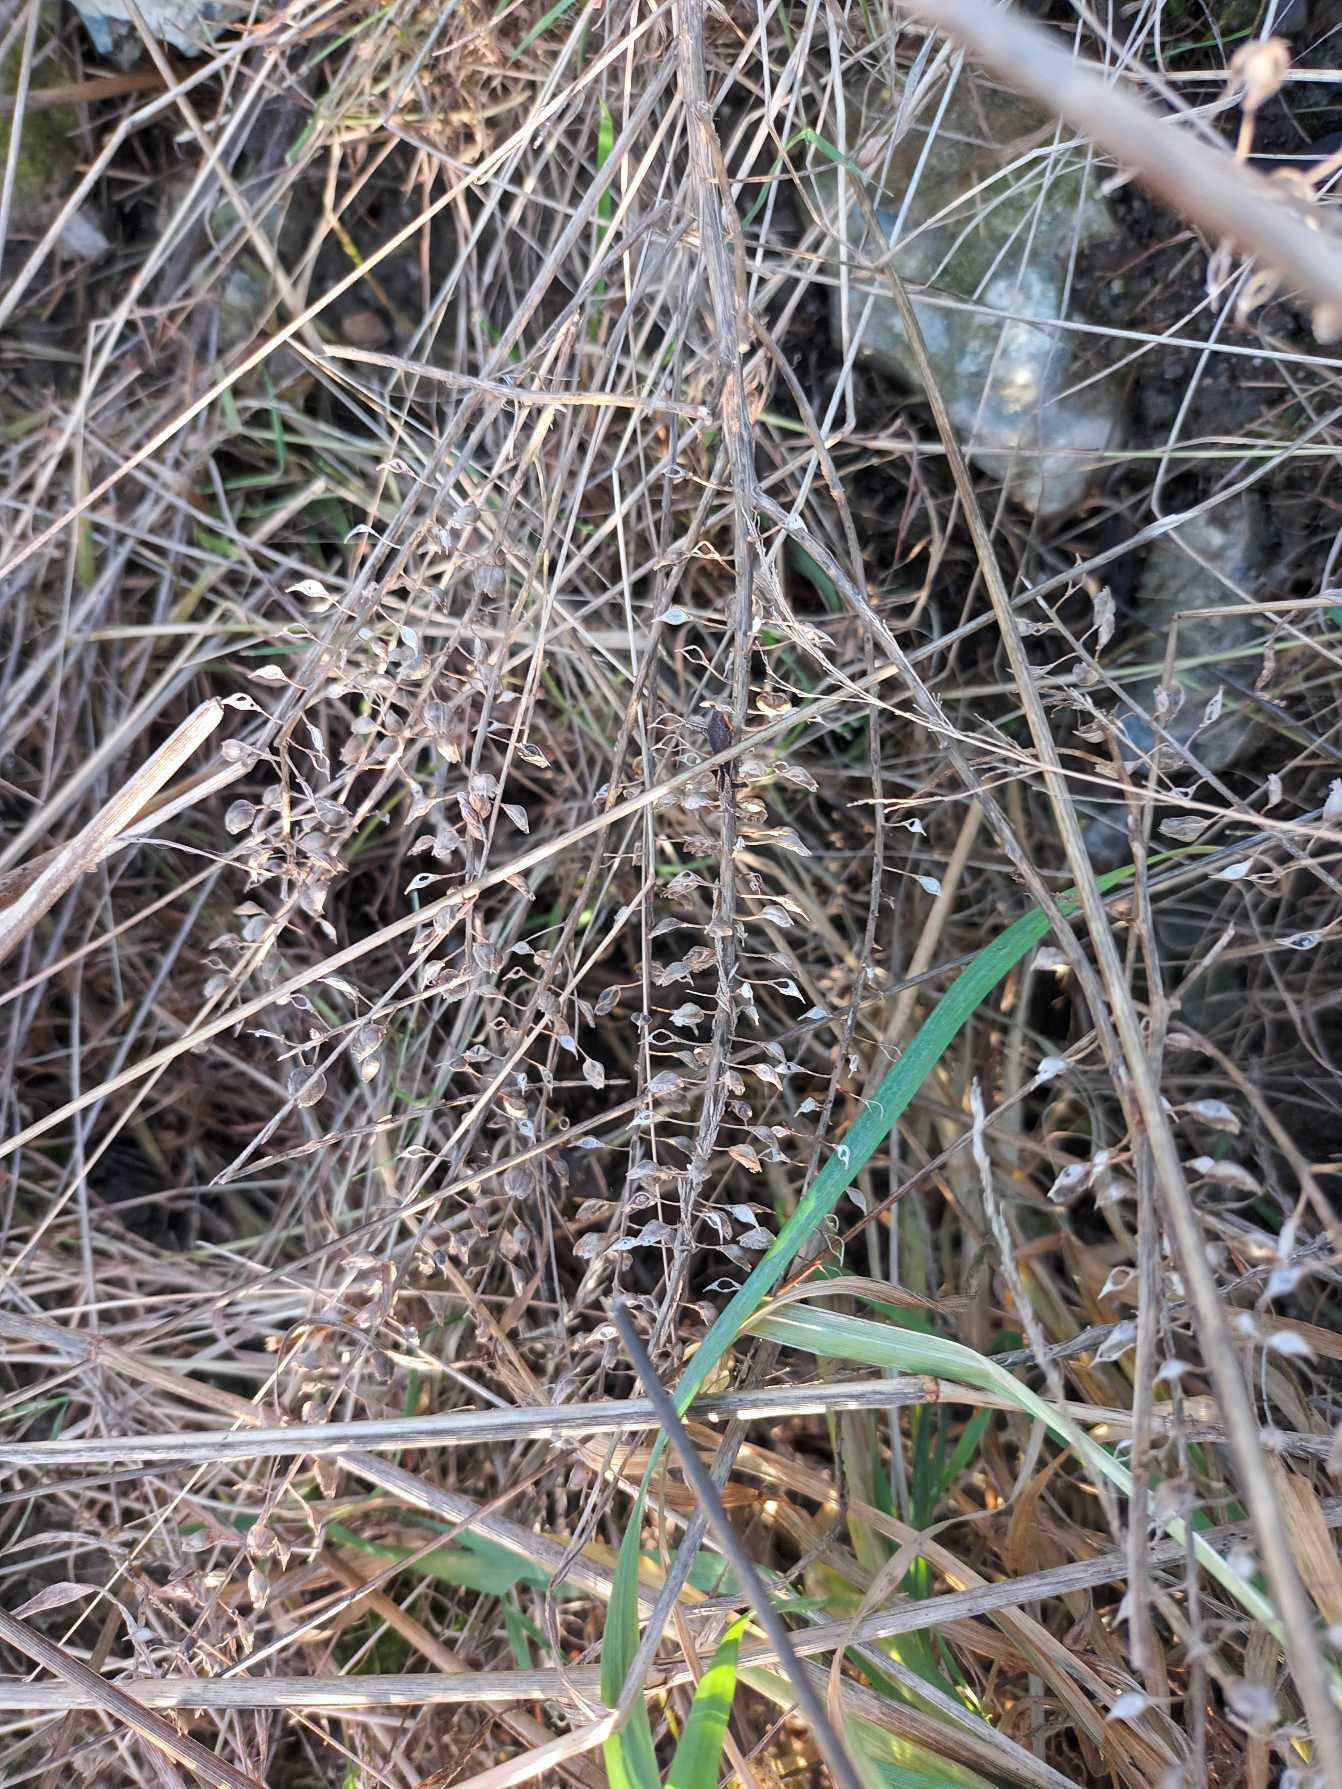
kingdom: Plantae
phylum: Tracheophyta
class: Magnoliopsida
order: Brassicales
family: Brassicaceae
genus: Lepidium
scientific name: Lepidium campestre
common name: Salomons lysestage
